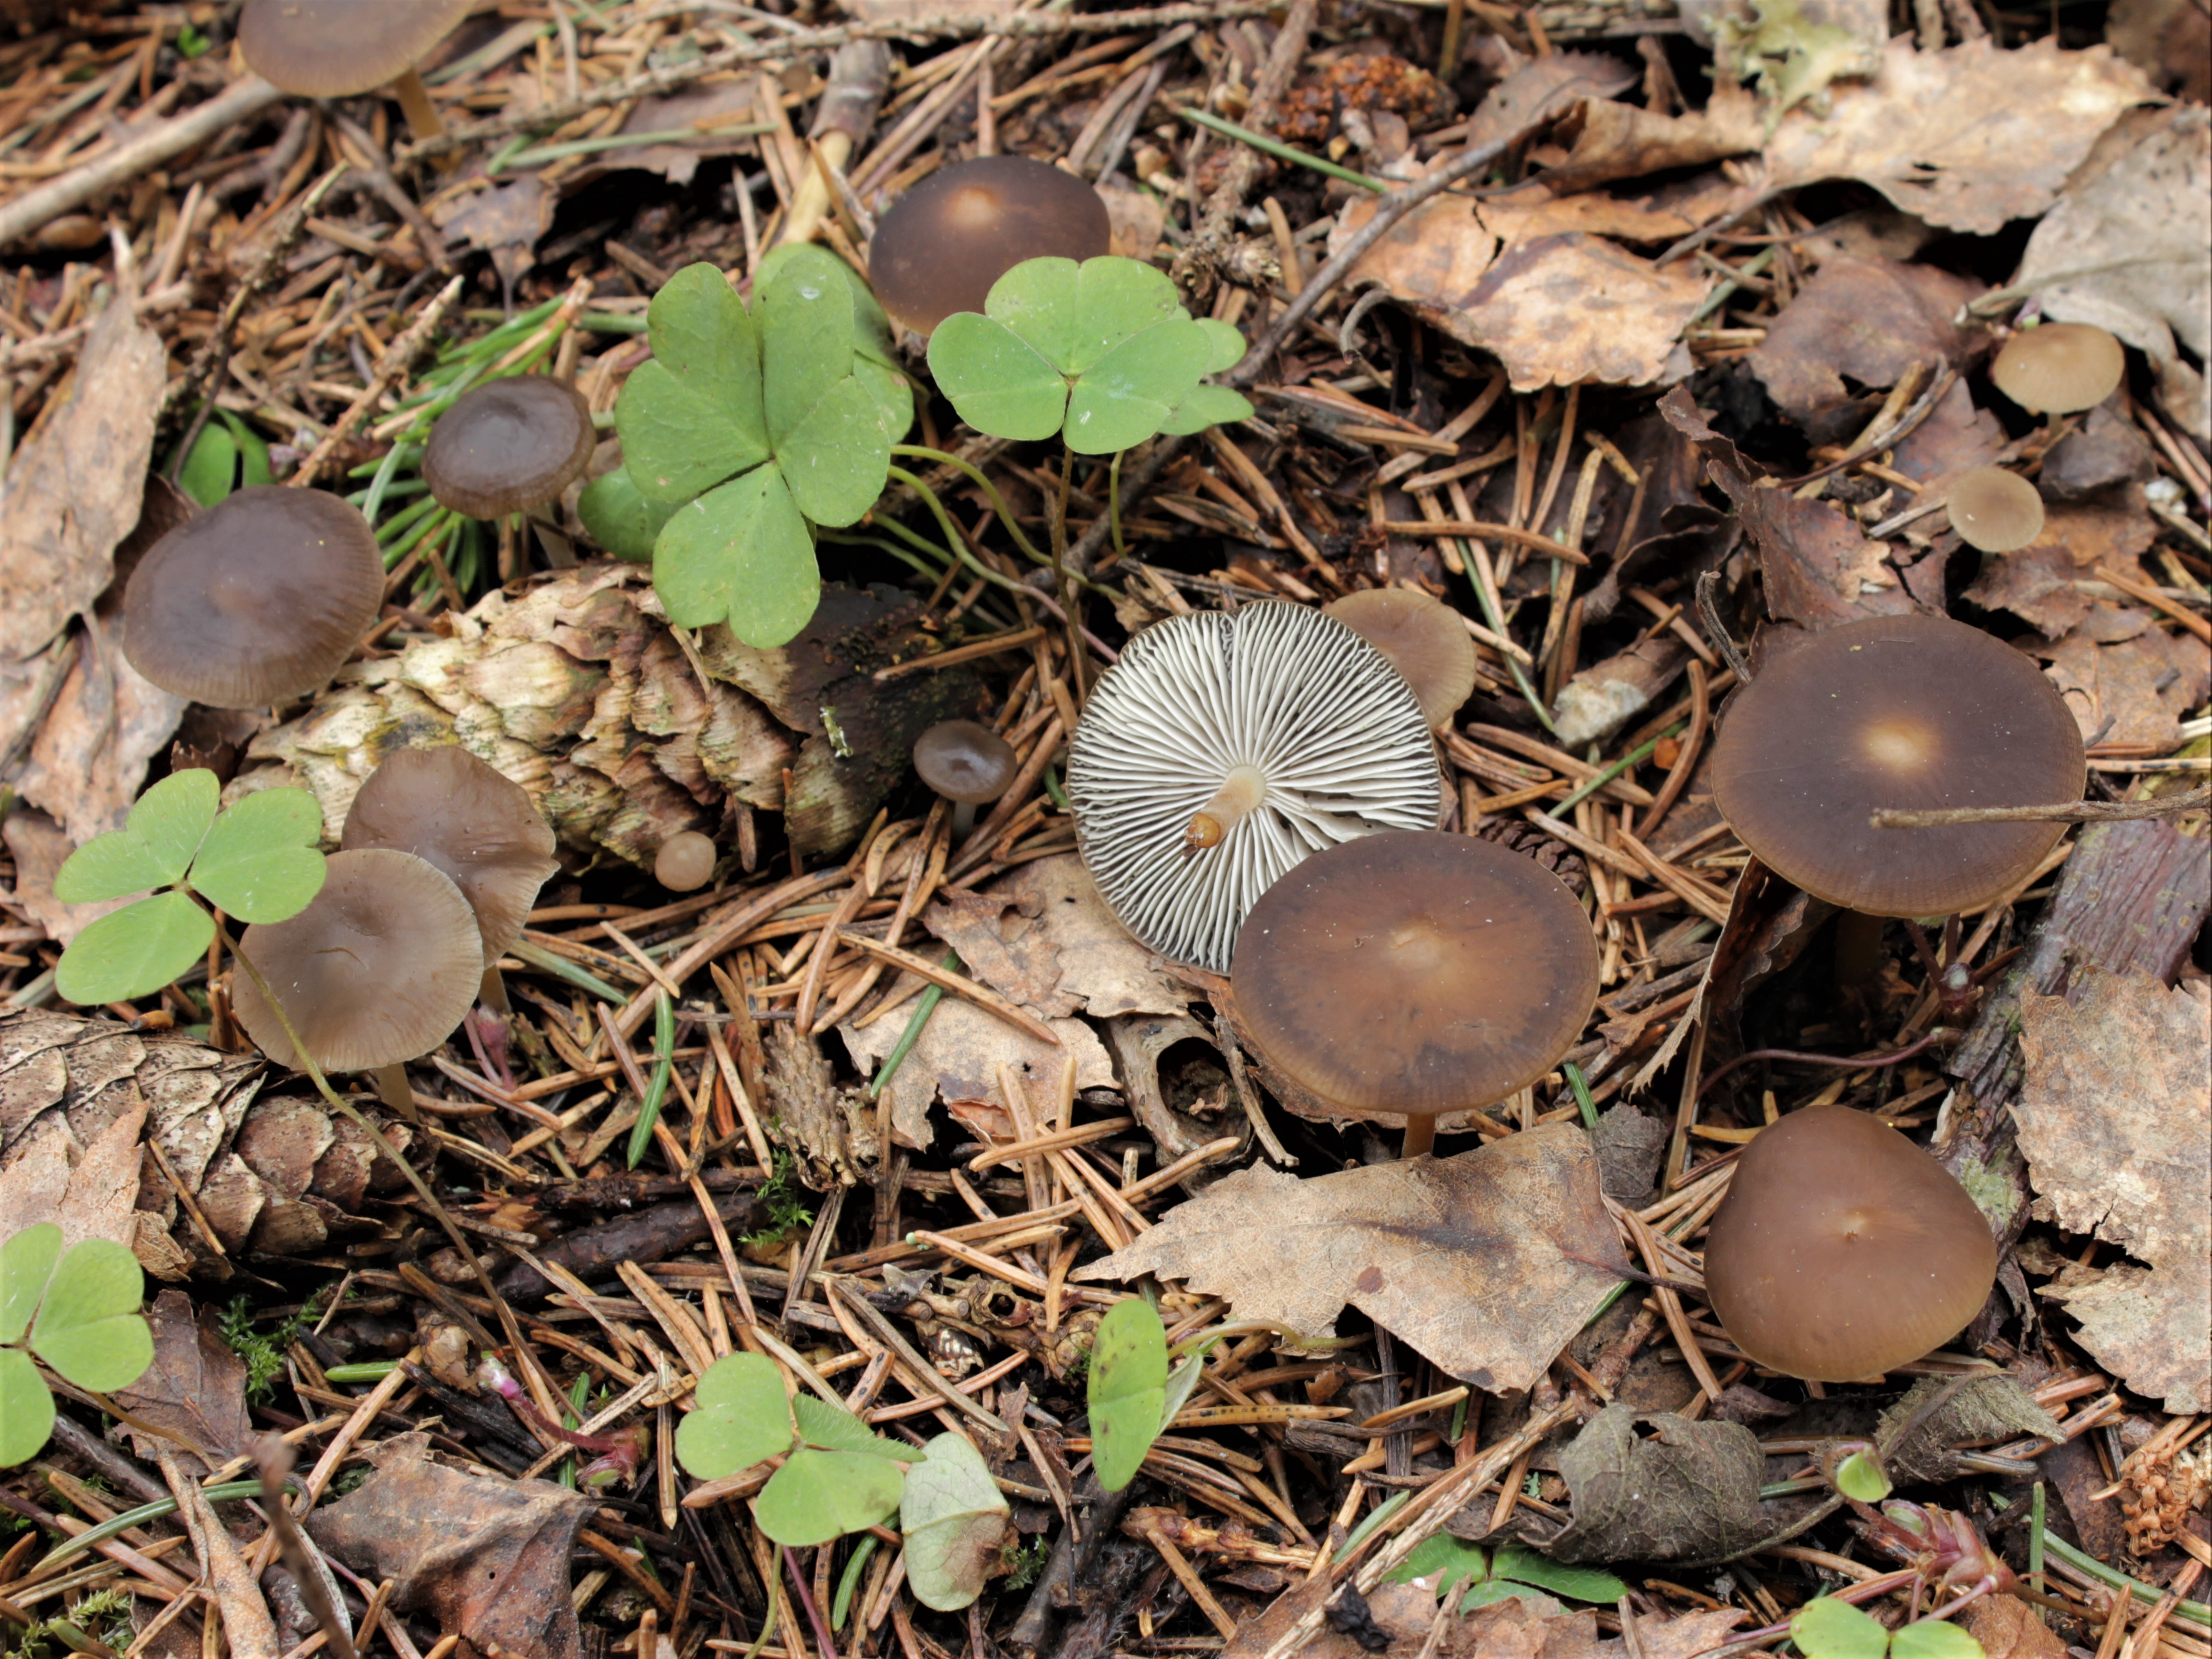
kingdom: Fungi
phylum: Basidiomycota
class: Agaricomycetes
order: Agaricales
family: Physalacriaceae
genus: Strobilurus
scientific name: Strobilurus esculentus
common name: Sprucecone cap
